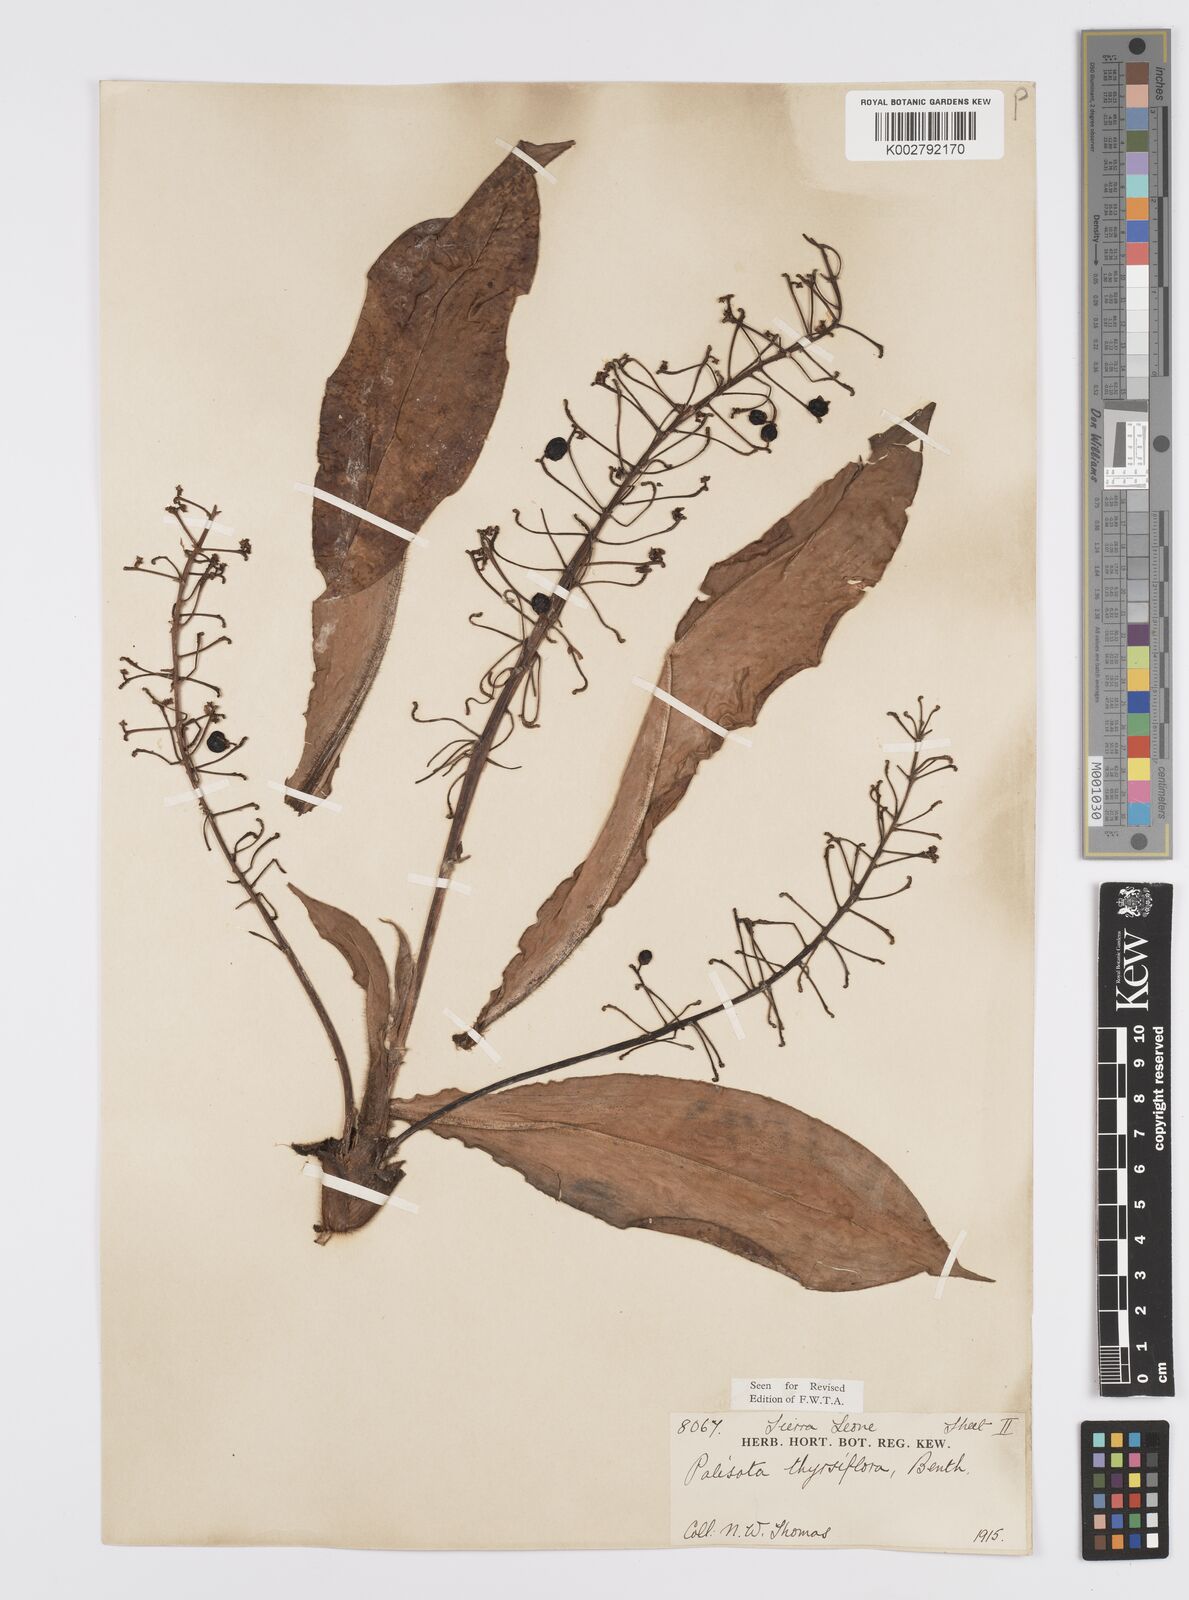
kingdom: Plantae
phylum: Tracheophyta
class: Liliopsida
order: Commelinales
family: Commelinaceae
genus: Palisota
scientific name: Palisota hirsuta
